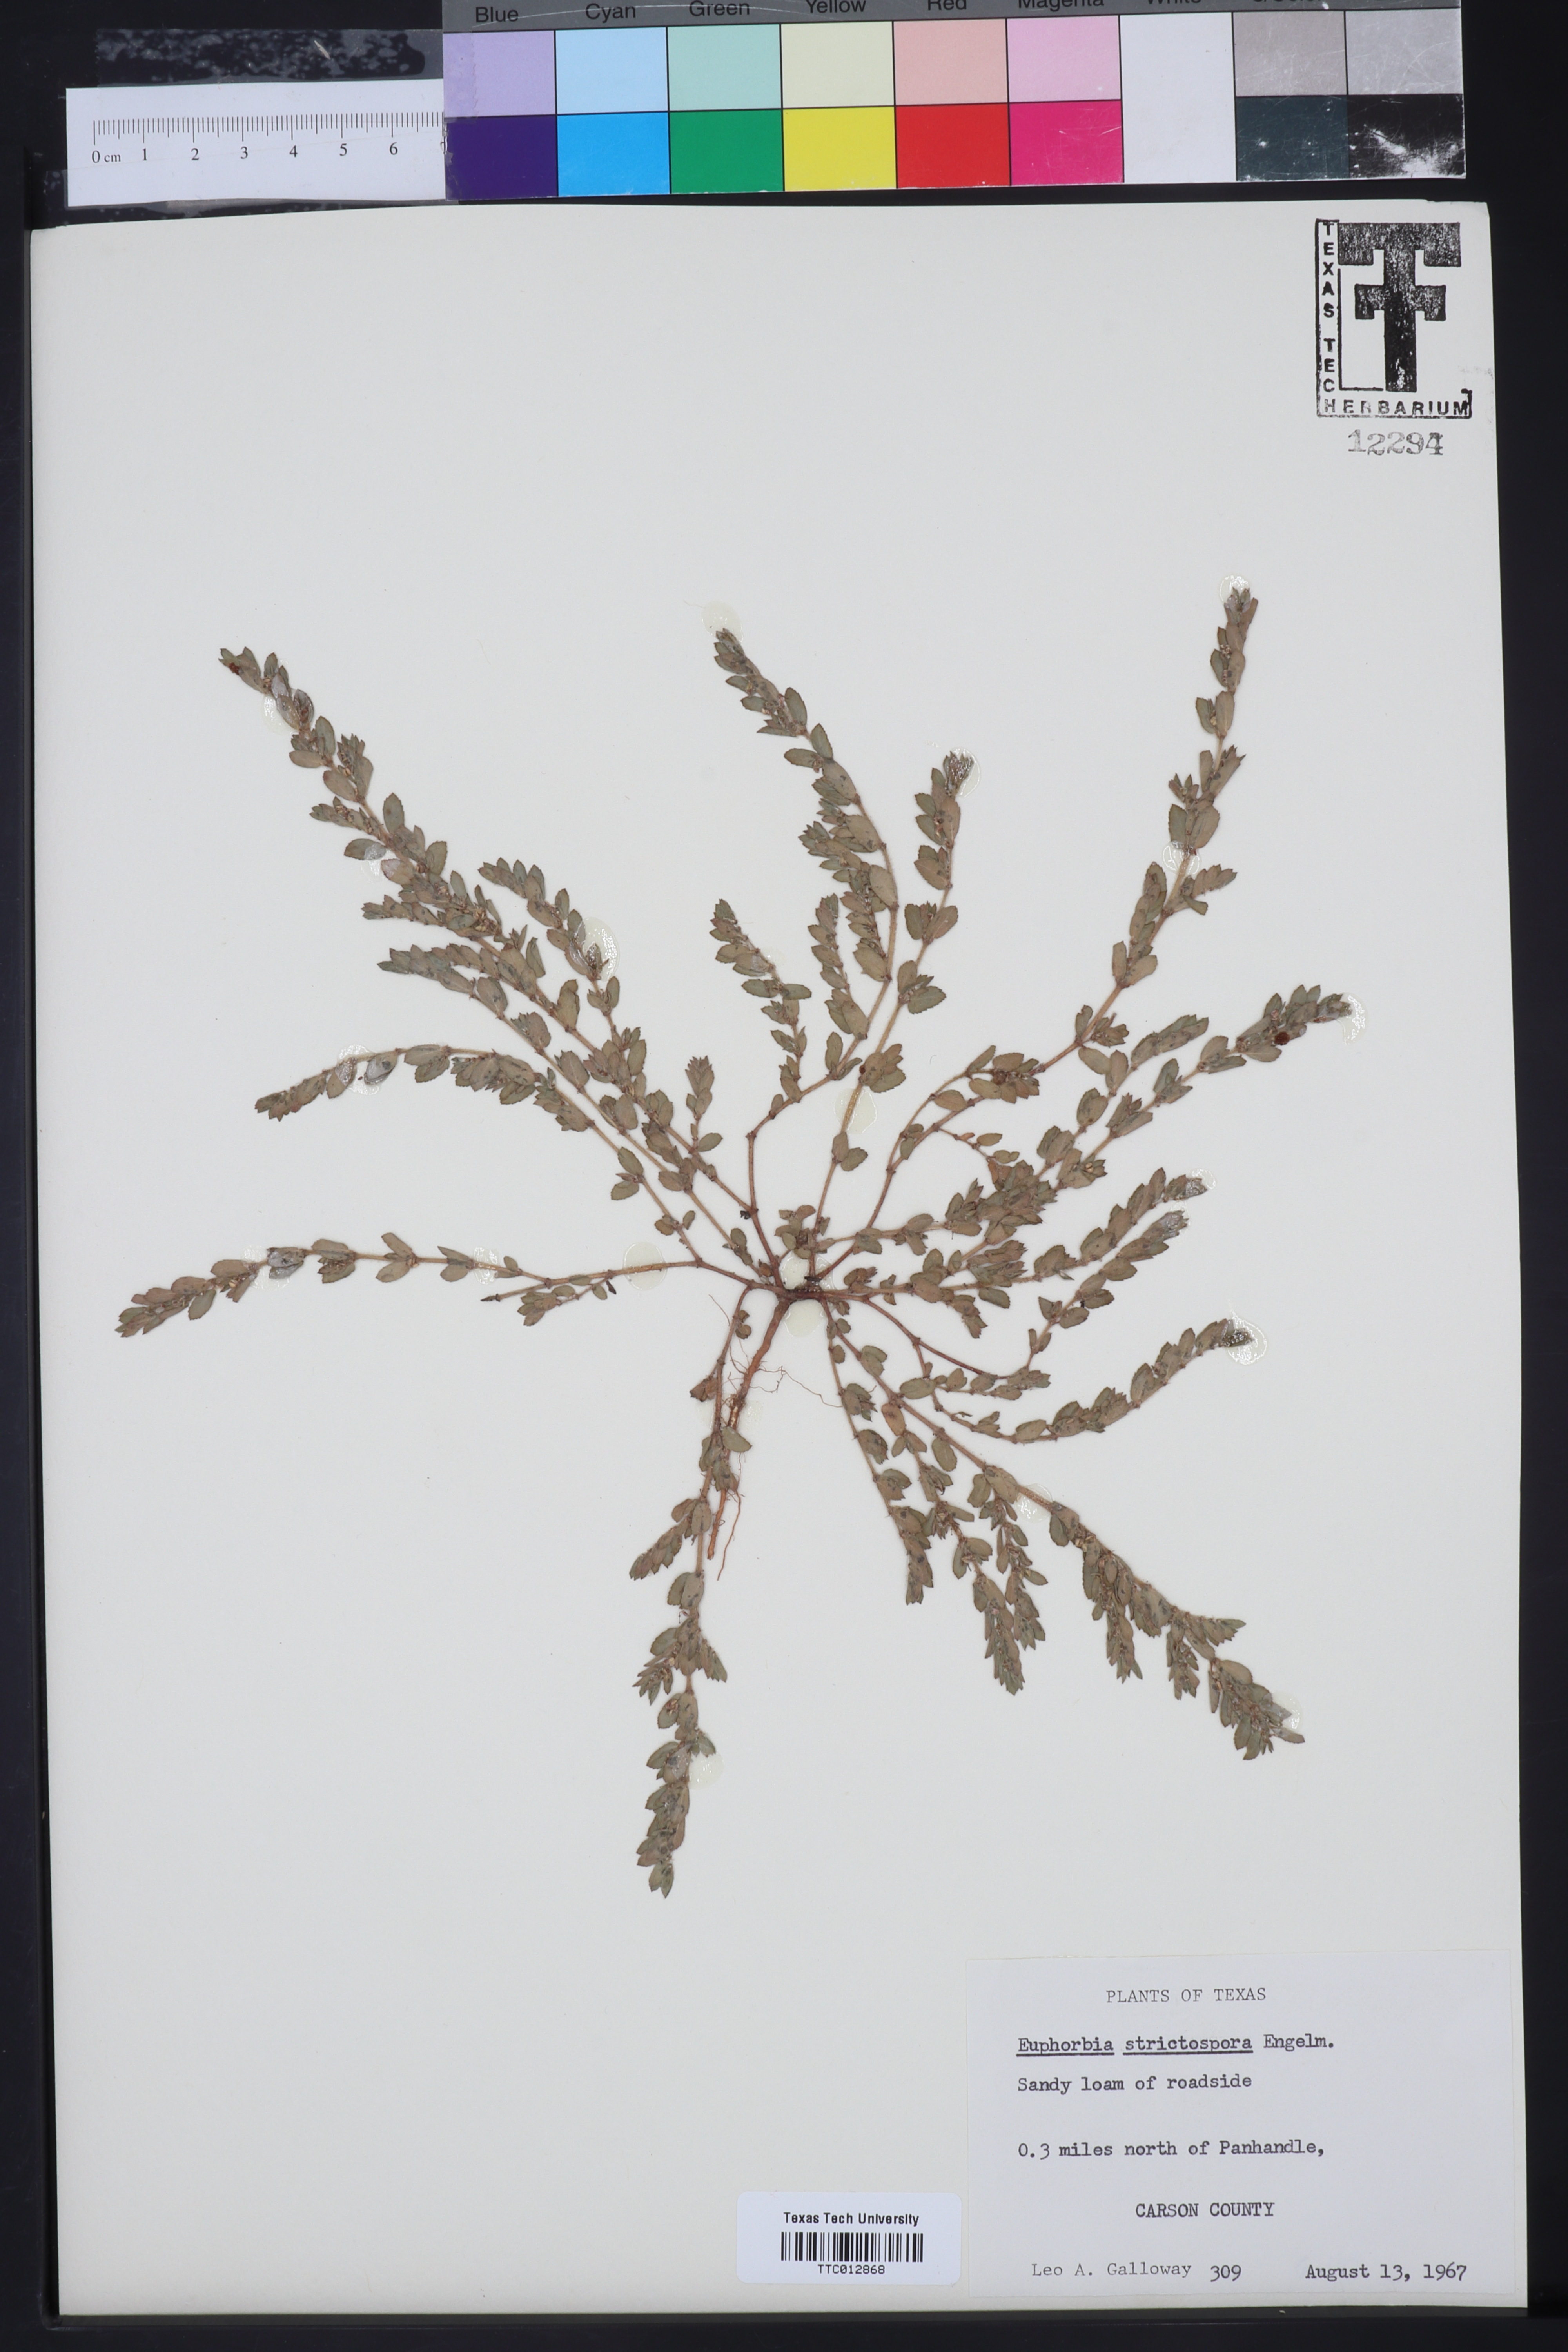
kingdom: Plantae
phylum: Tracheophyta
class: Magnoliopsida
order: Malpighiales
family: Euphorbiaceae
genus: Euphorbia
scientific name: Euphorbia
